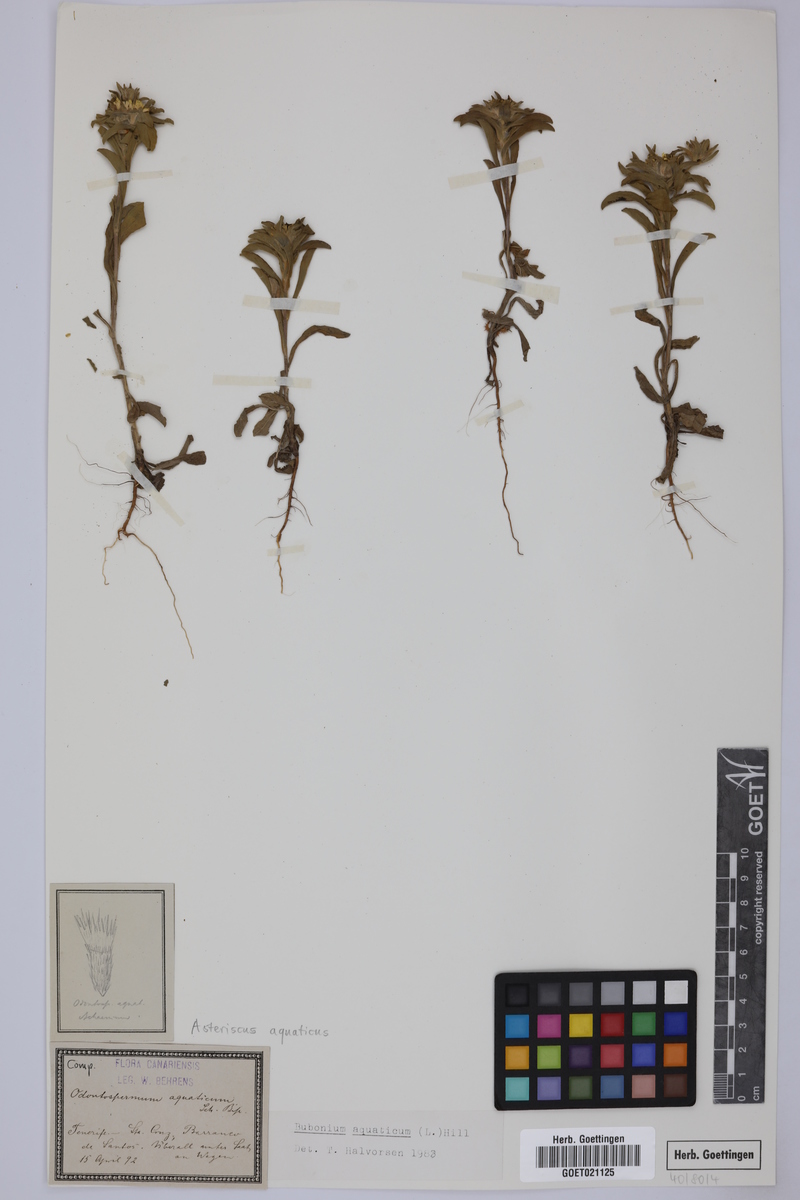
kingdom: Plantae
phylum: Tracheophyta
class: Magnoliopsida
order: Asterales
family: Asteraceae
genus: Asteriscus
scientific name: Asteriscus aquaticus
